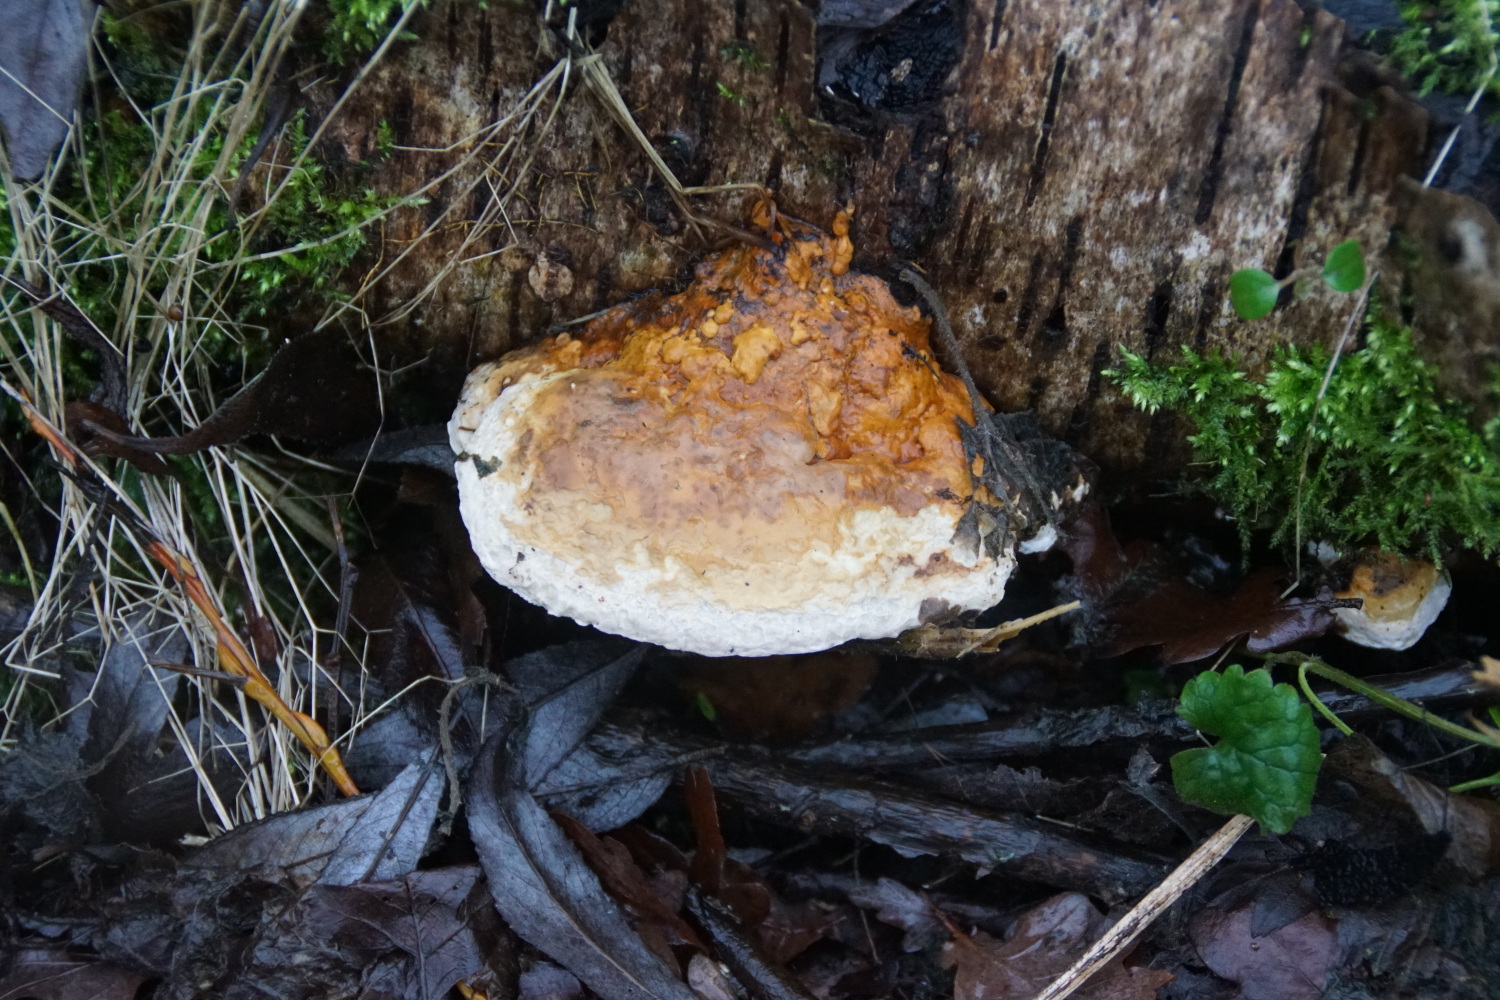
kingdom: Fungi
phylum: Basidiomycota
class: Agaricomycetes
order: Polyporales
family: Fomitopsidaceae
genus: Fomitopsis
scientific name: Fomitopsis pinicola
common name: randbæltet hovporesvamp
